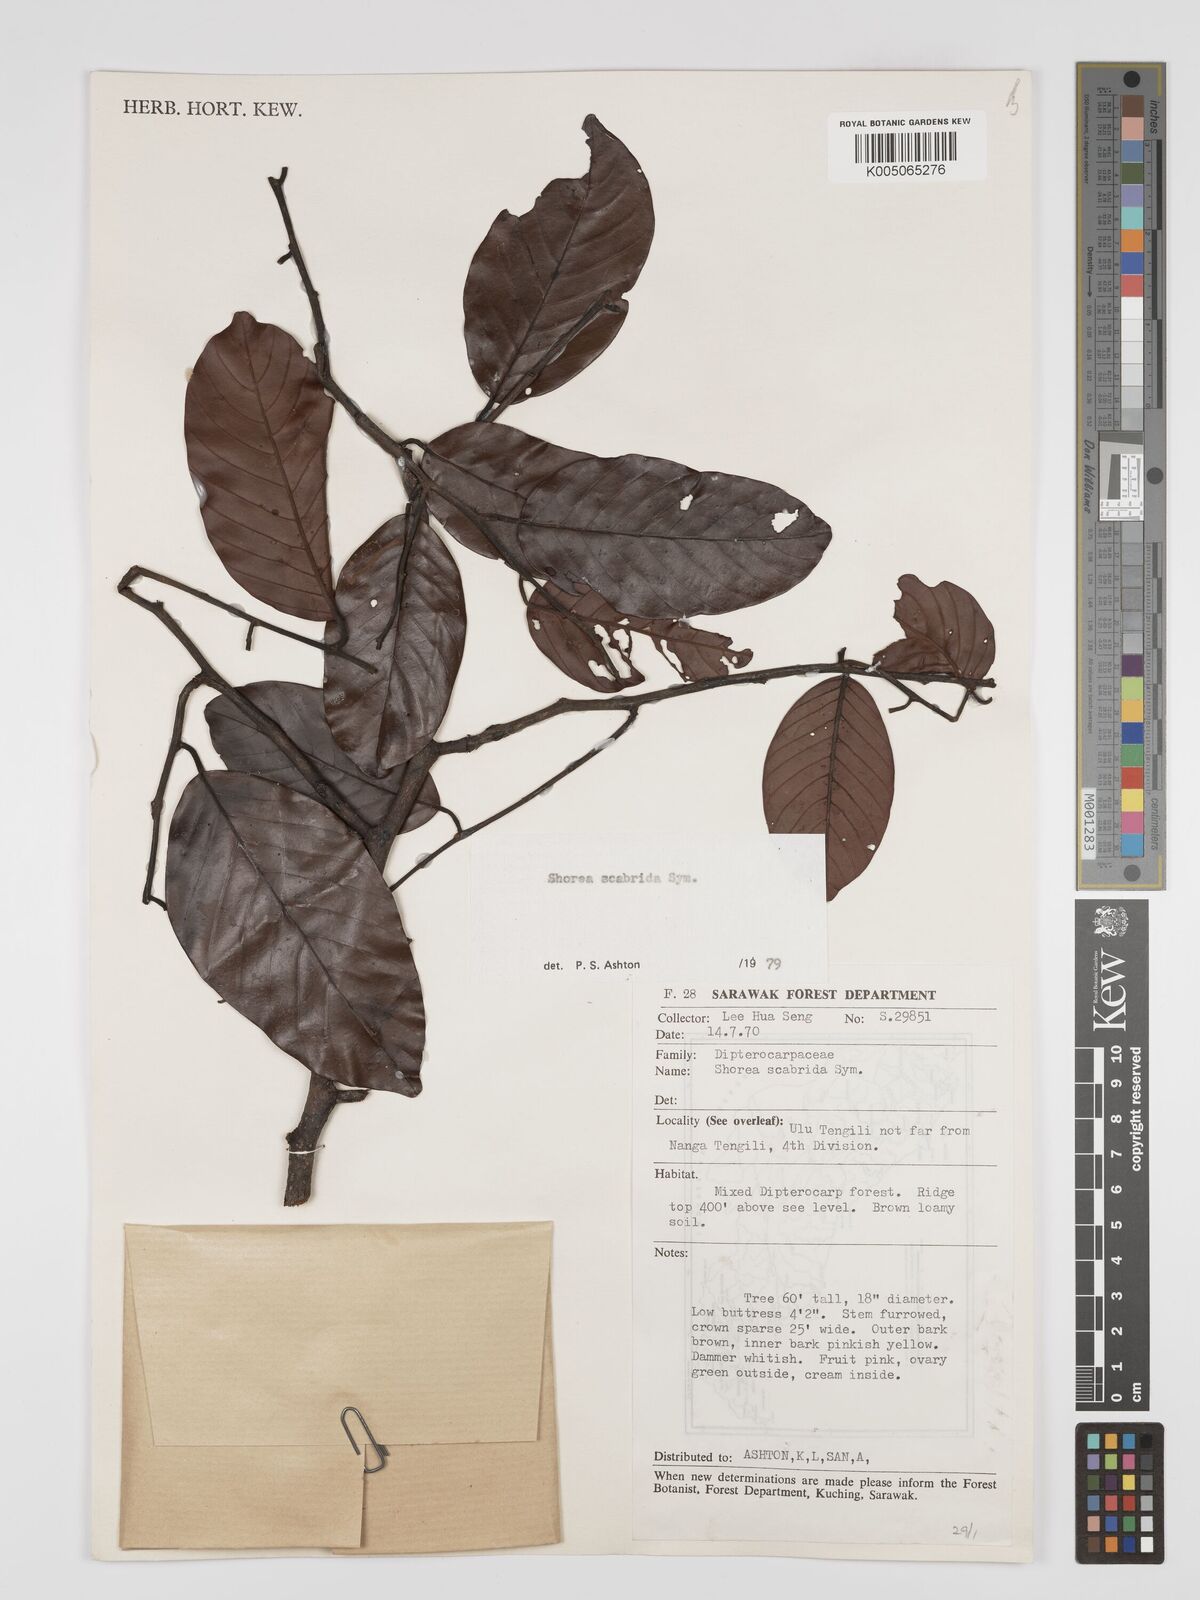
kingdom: Plantae
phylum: Tracheophyta
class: Magnoliopsida
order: Malvales
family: Dipterocarpaceae
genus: Shorea
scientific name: Shorea scabrida
